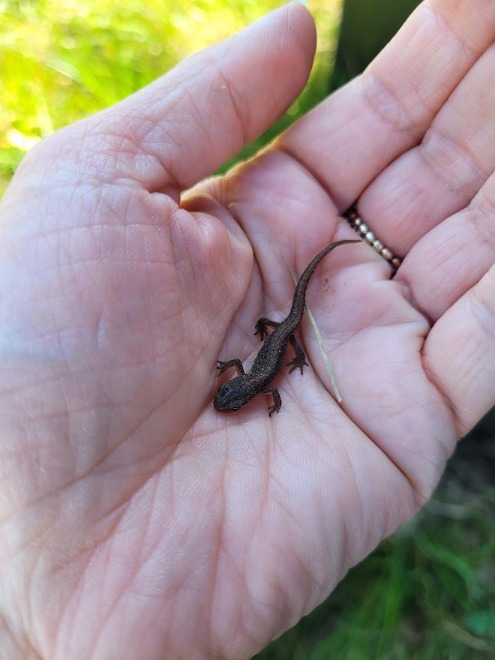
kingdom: Animalia
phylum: Chordata
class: Amphibia
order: Caudata
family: Salamandridae
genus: Lissotriton
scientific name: Lissotriton vulgaris
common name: Lille vandsalamander
